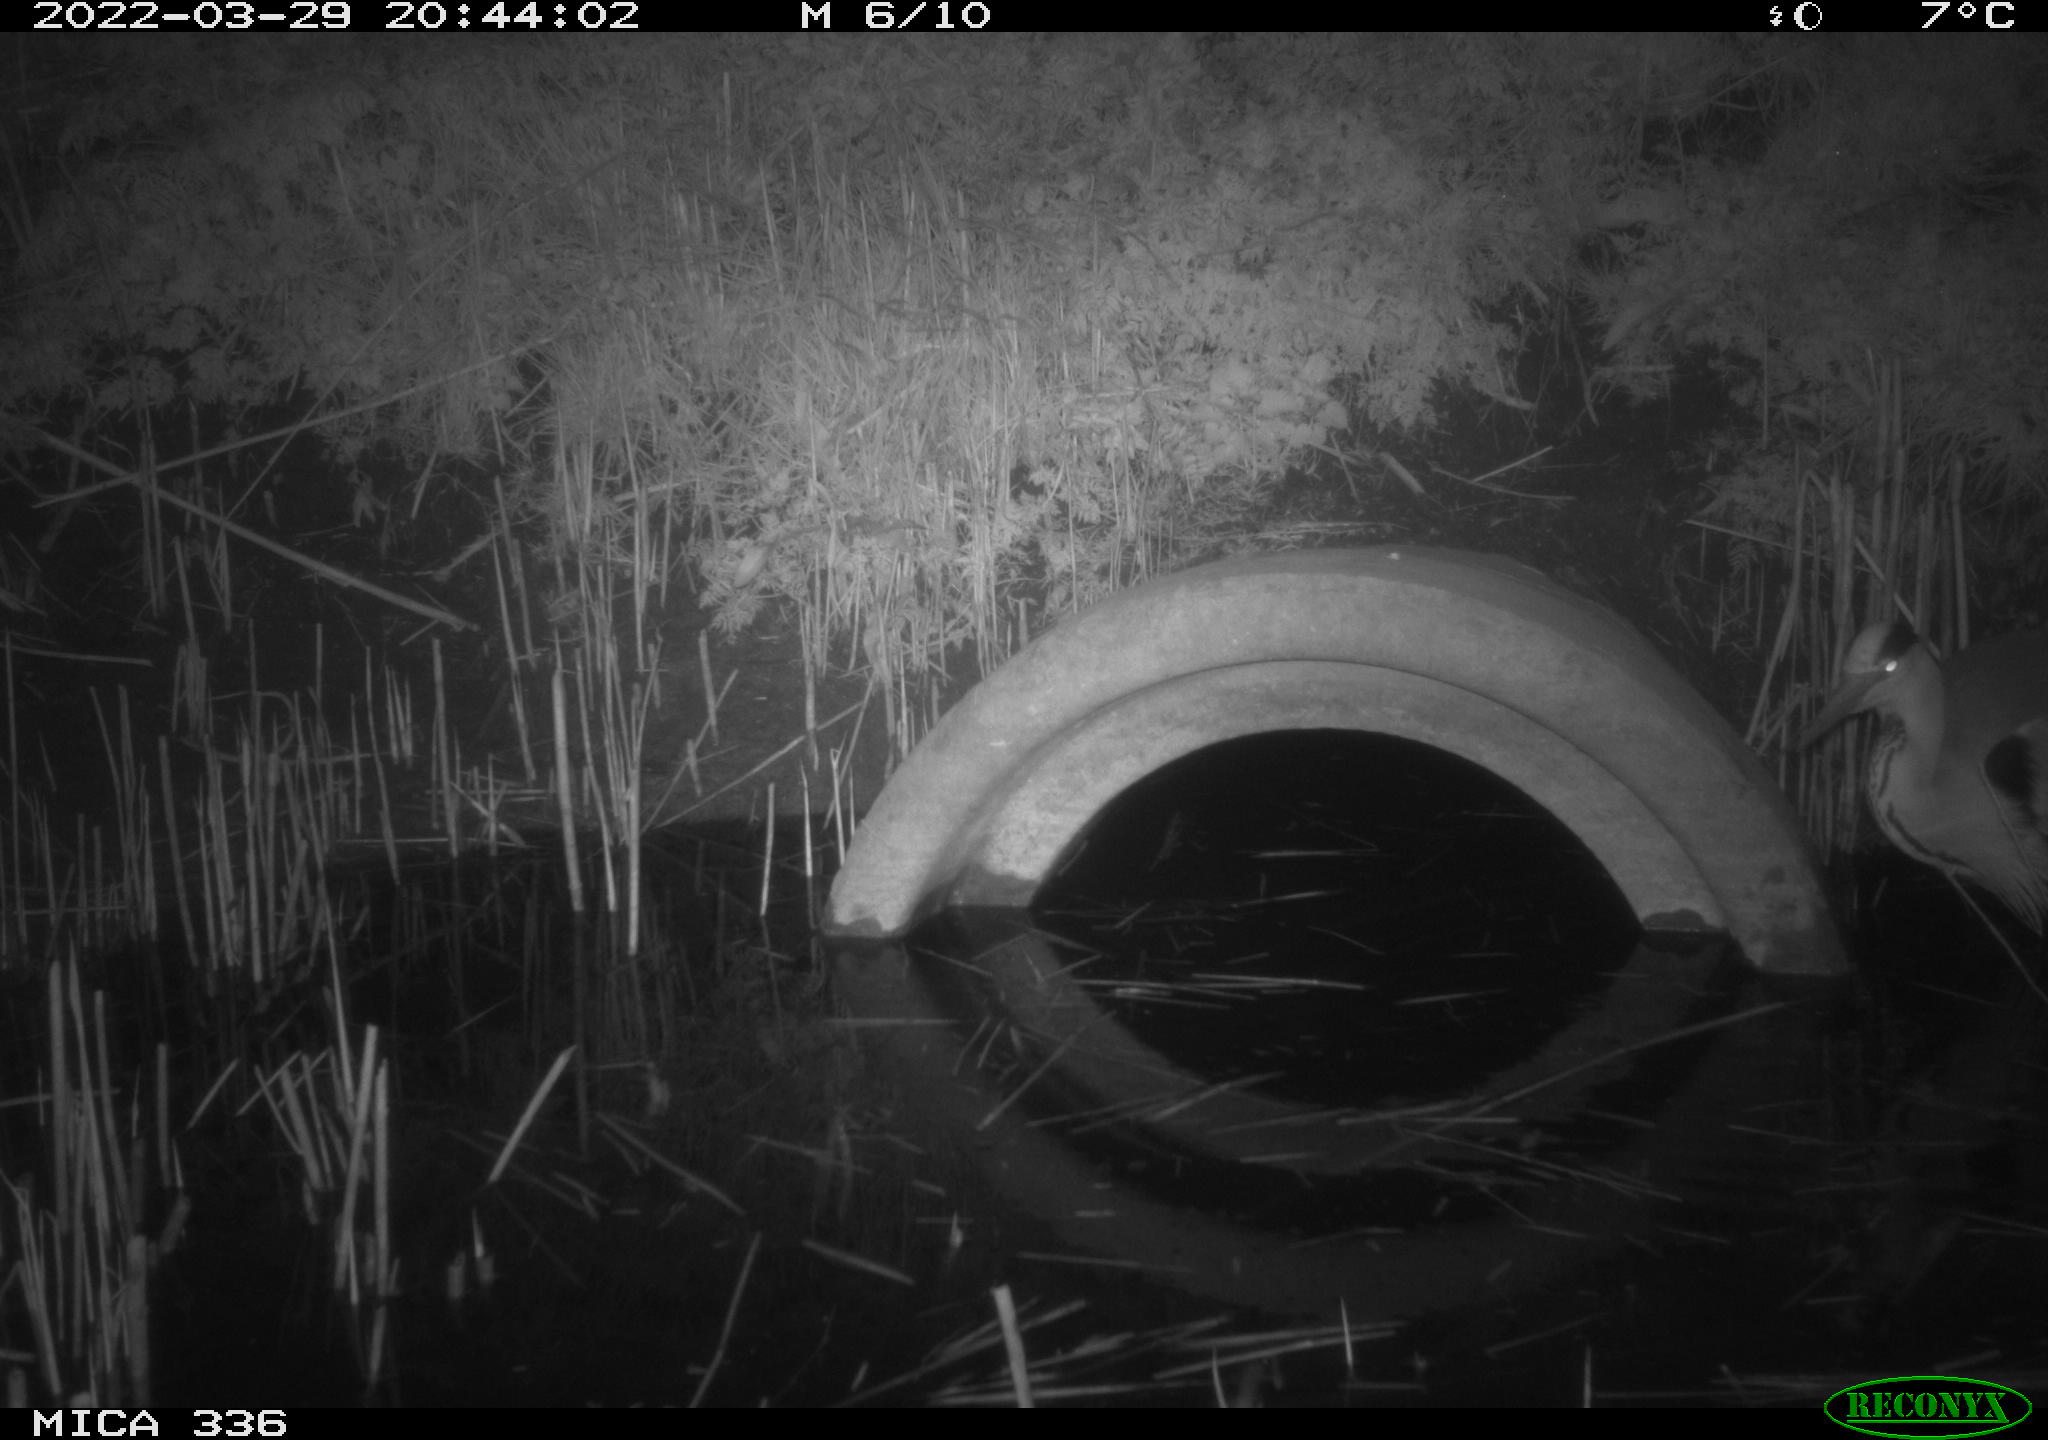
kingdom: Animalia
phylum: Chordata
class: Aves
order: Pelecaniformes
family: Ardeidae
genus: Ardea
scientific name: Ardea cinerea
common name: Grey heron
